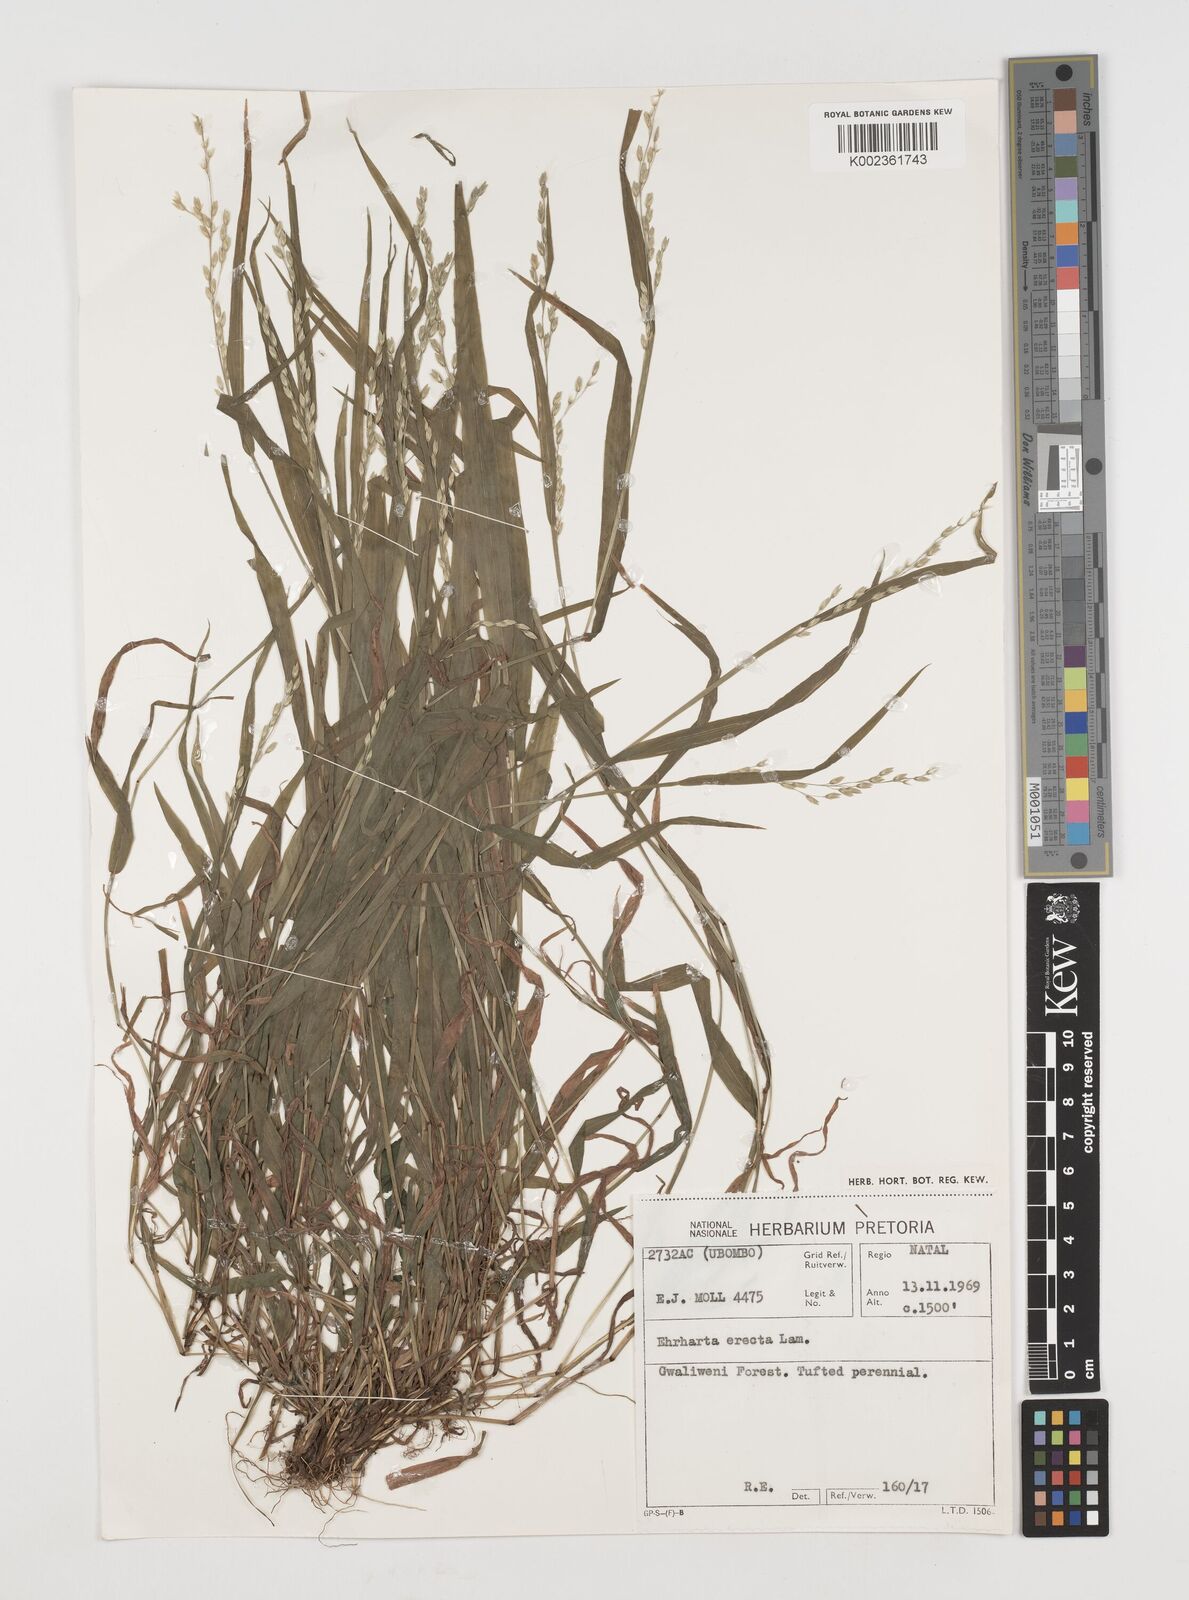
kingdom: Plantae
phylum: Tracheophyta
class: Liliopsida
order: Poales
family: Poaceae
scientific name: Poaceae
